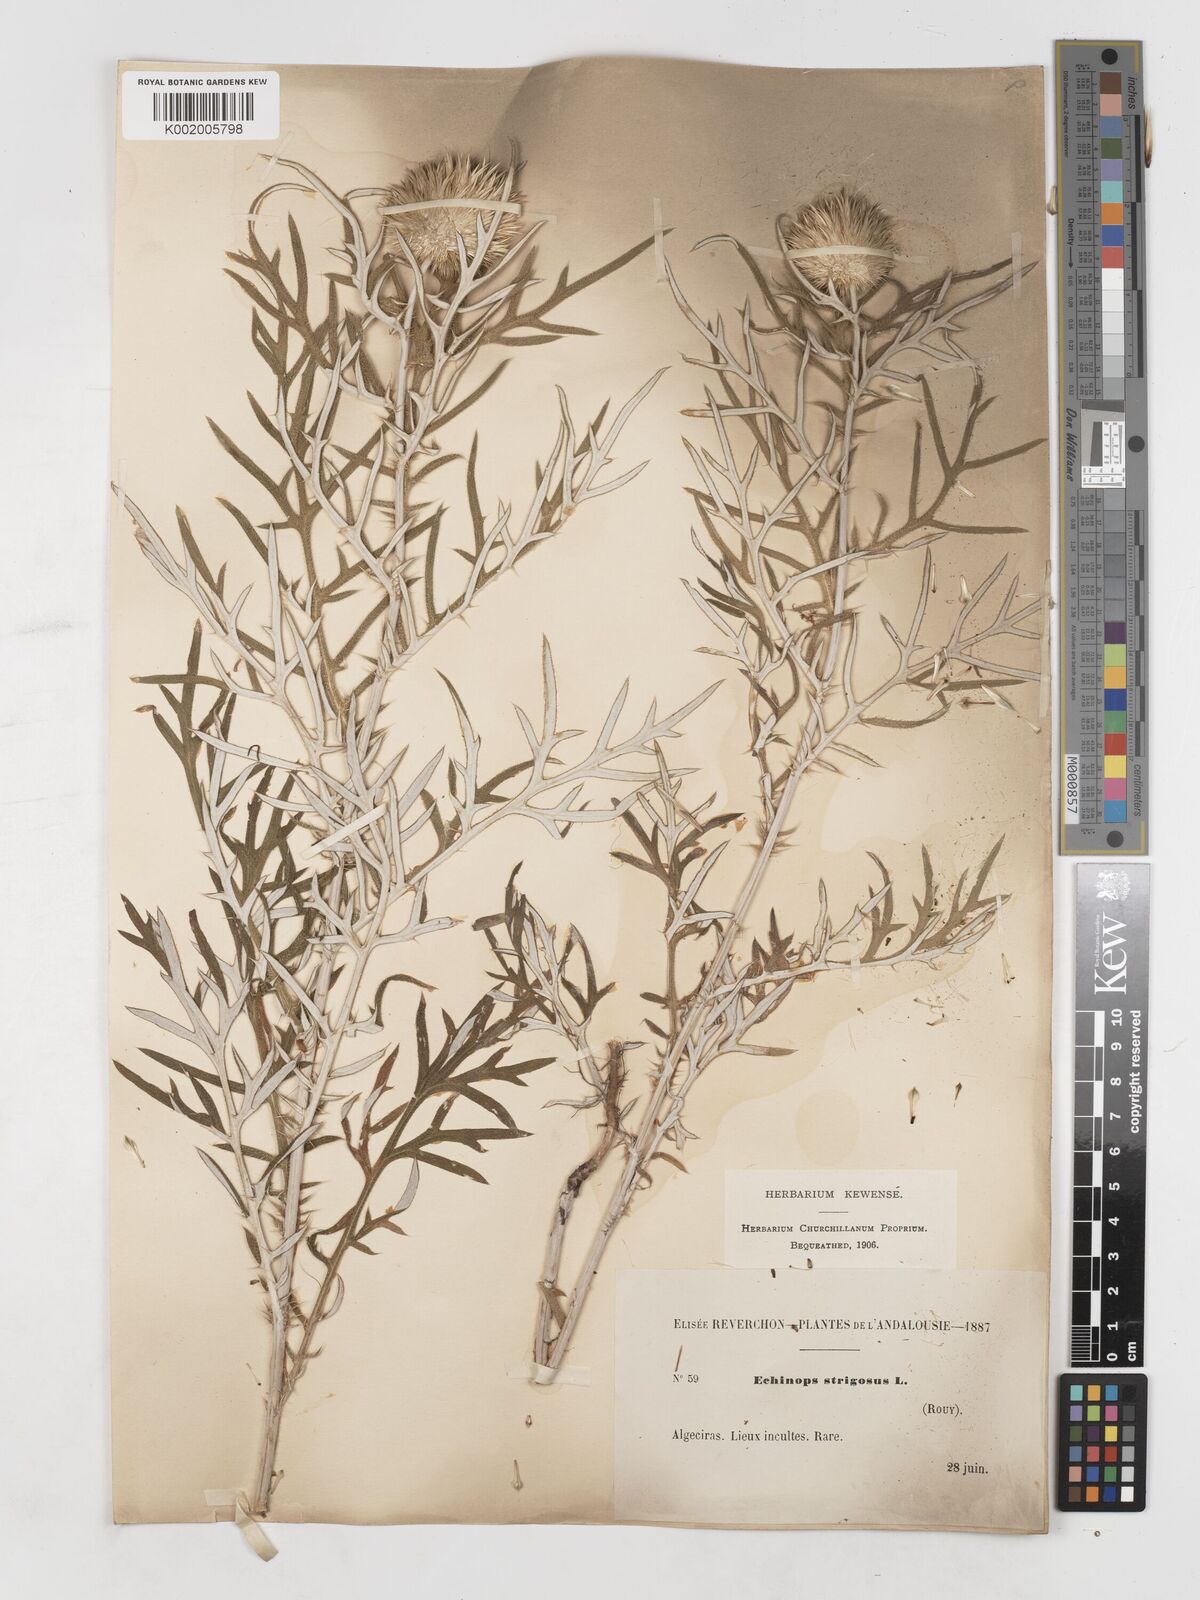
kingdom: Plantae
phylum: Tracheophyta
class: Magnoliopsida
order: Asterales
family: Asteraceae
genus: Echinops
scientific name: Echinops strigosus
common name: Rough-leaf globe thistle
